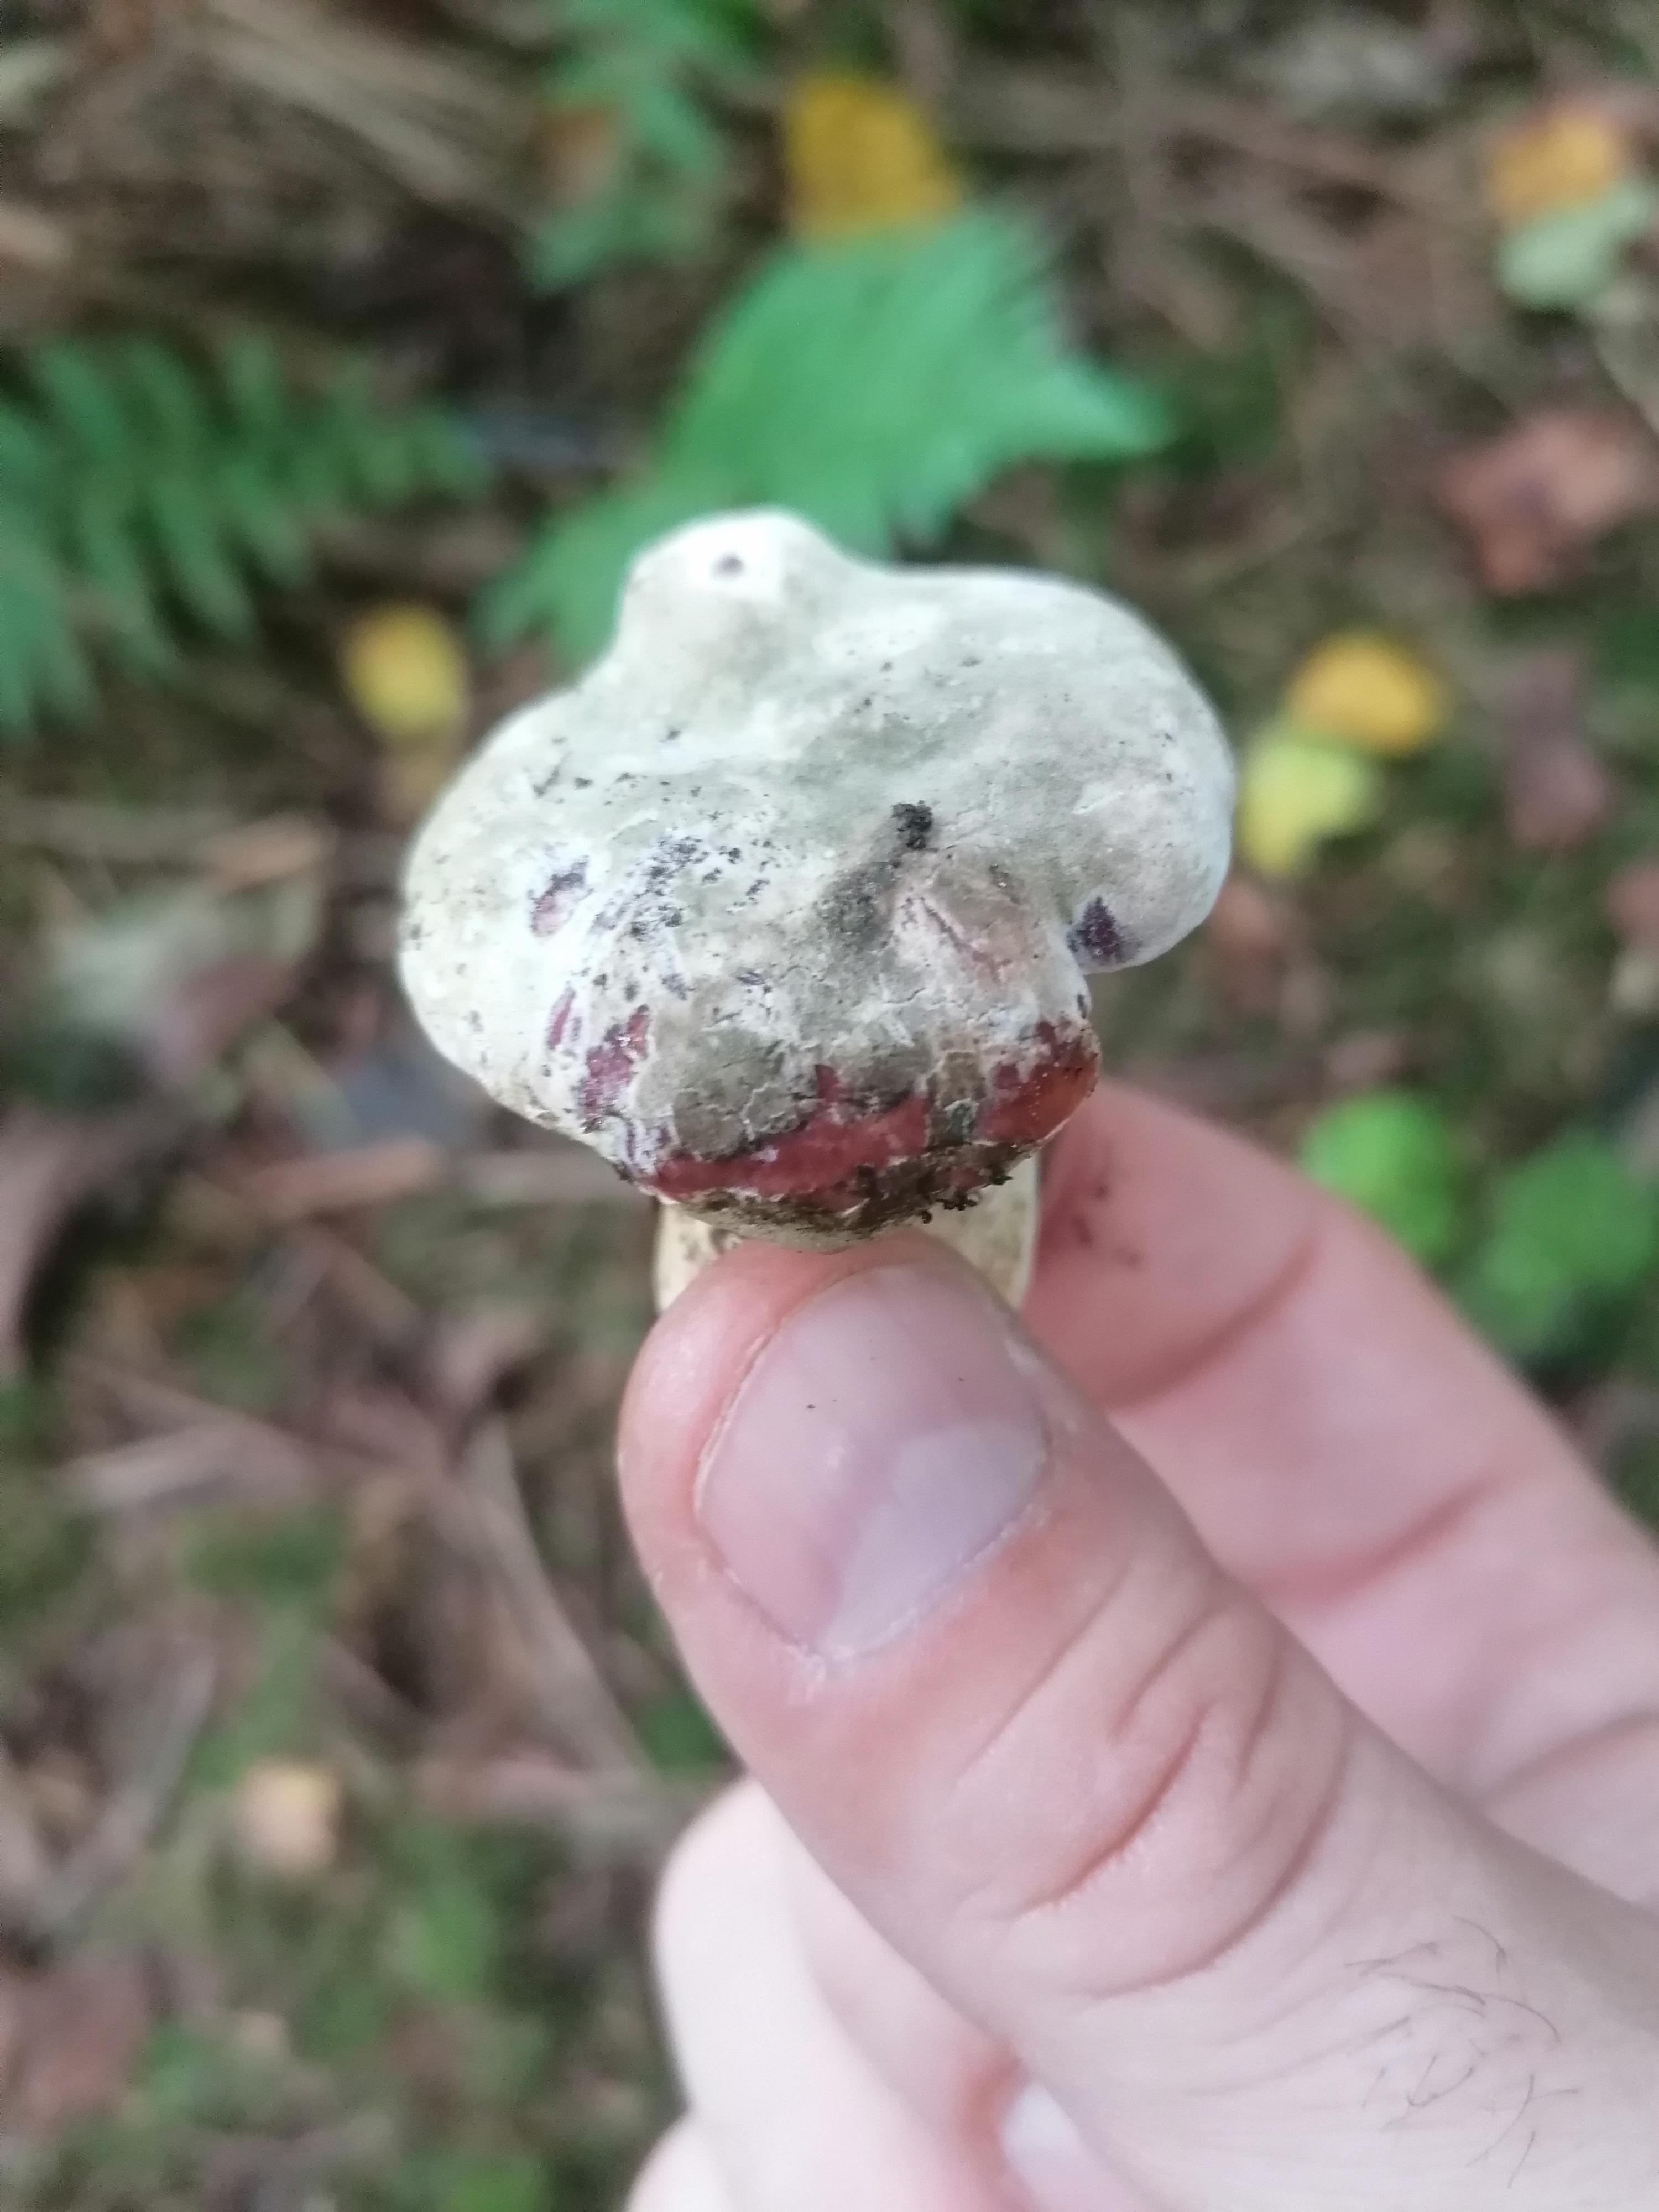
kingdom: Fungi
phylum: Ascomycota
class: Sordariomycetes
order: Hypocreales
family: Hypocreaceae
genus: Hypomyces
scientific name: Hypomyces luteovirens
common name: gulgrøn snylteskorpe
